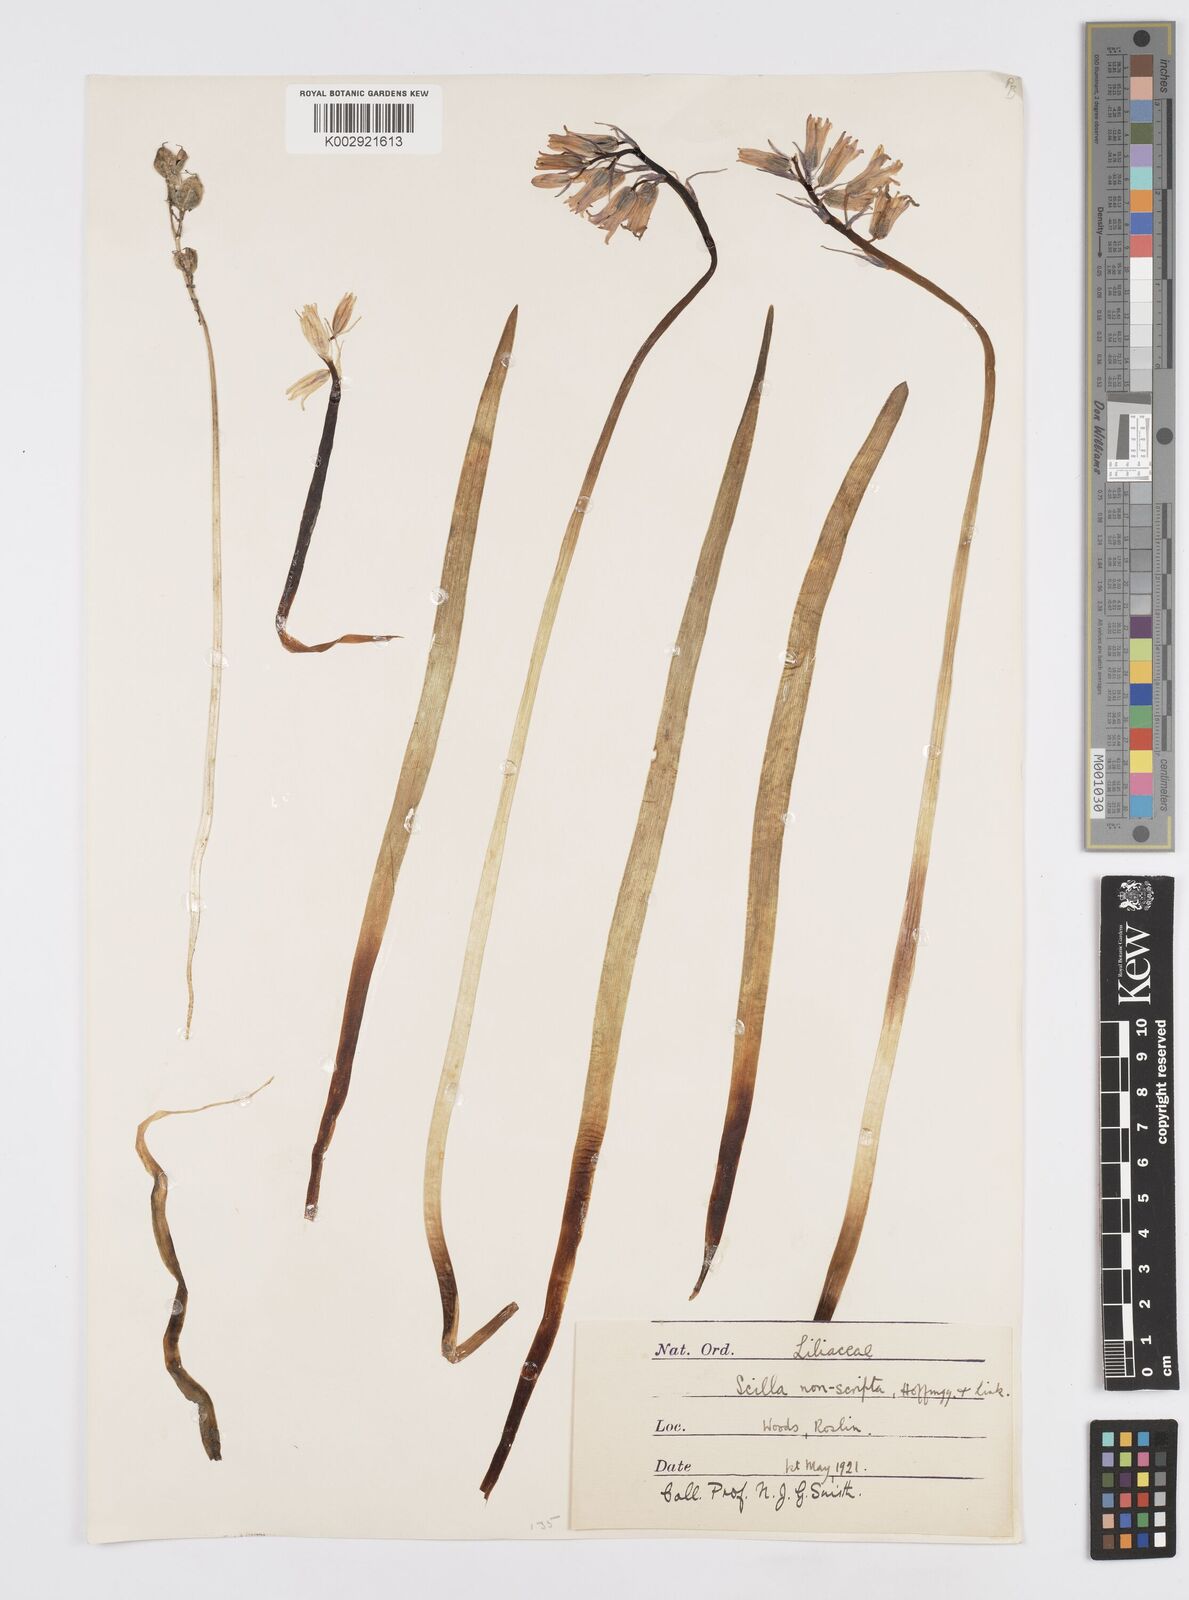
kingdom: Plantae
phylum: Tracheophyta
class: Liliopsida
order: Asparagales
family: Asparagaceae
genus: Hyacinthoides
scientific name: Hyacinthoides non-scripta
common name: Bluebell
